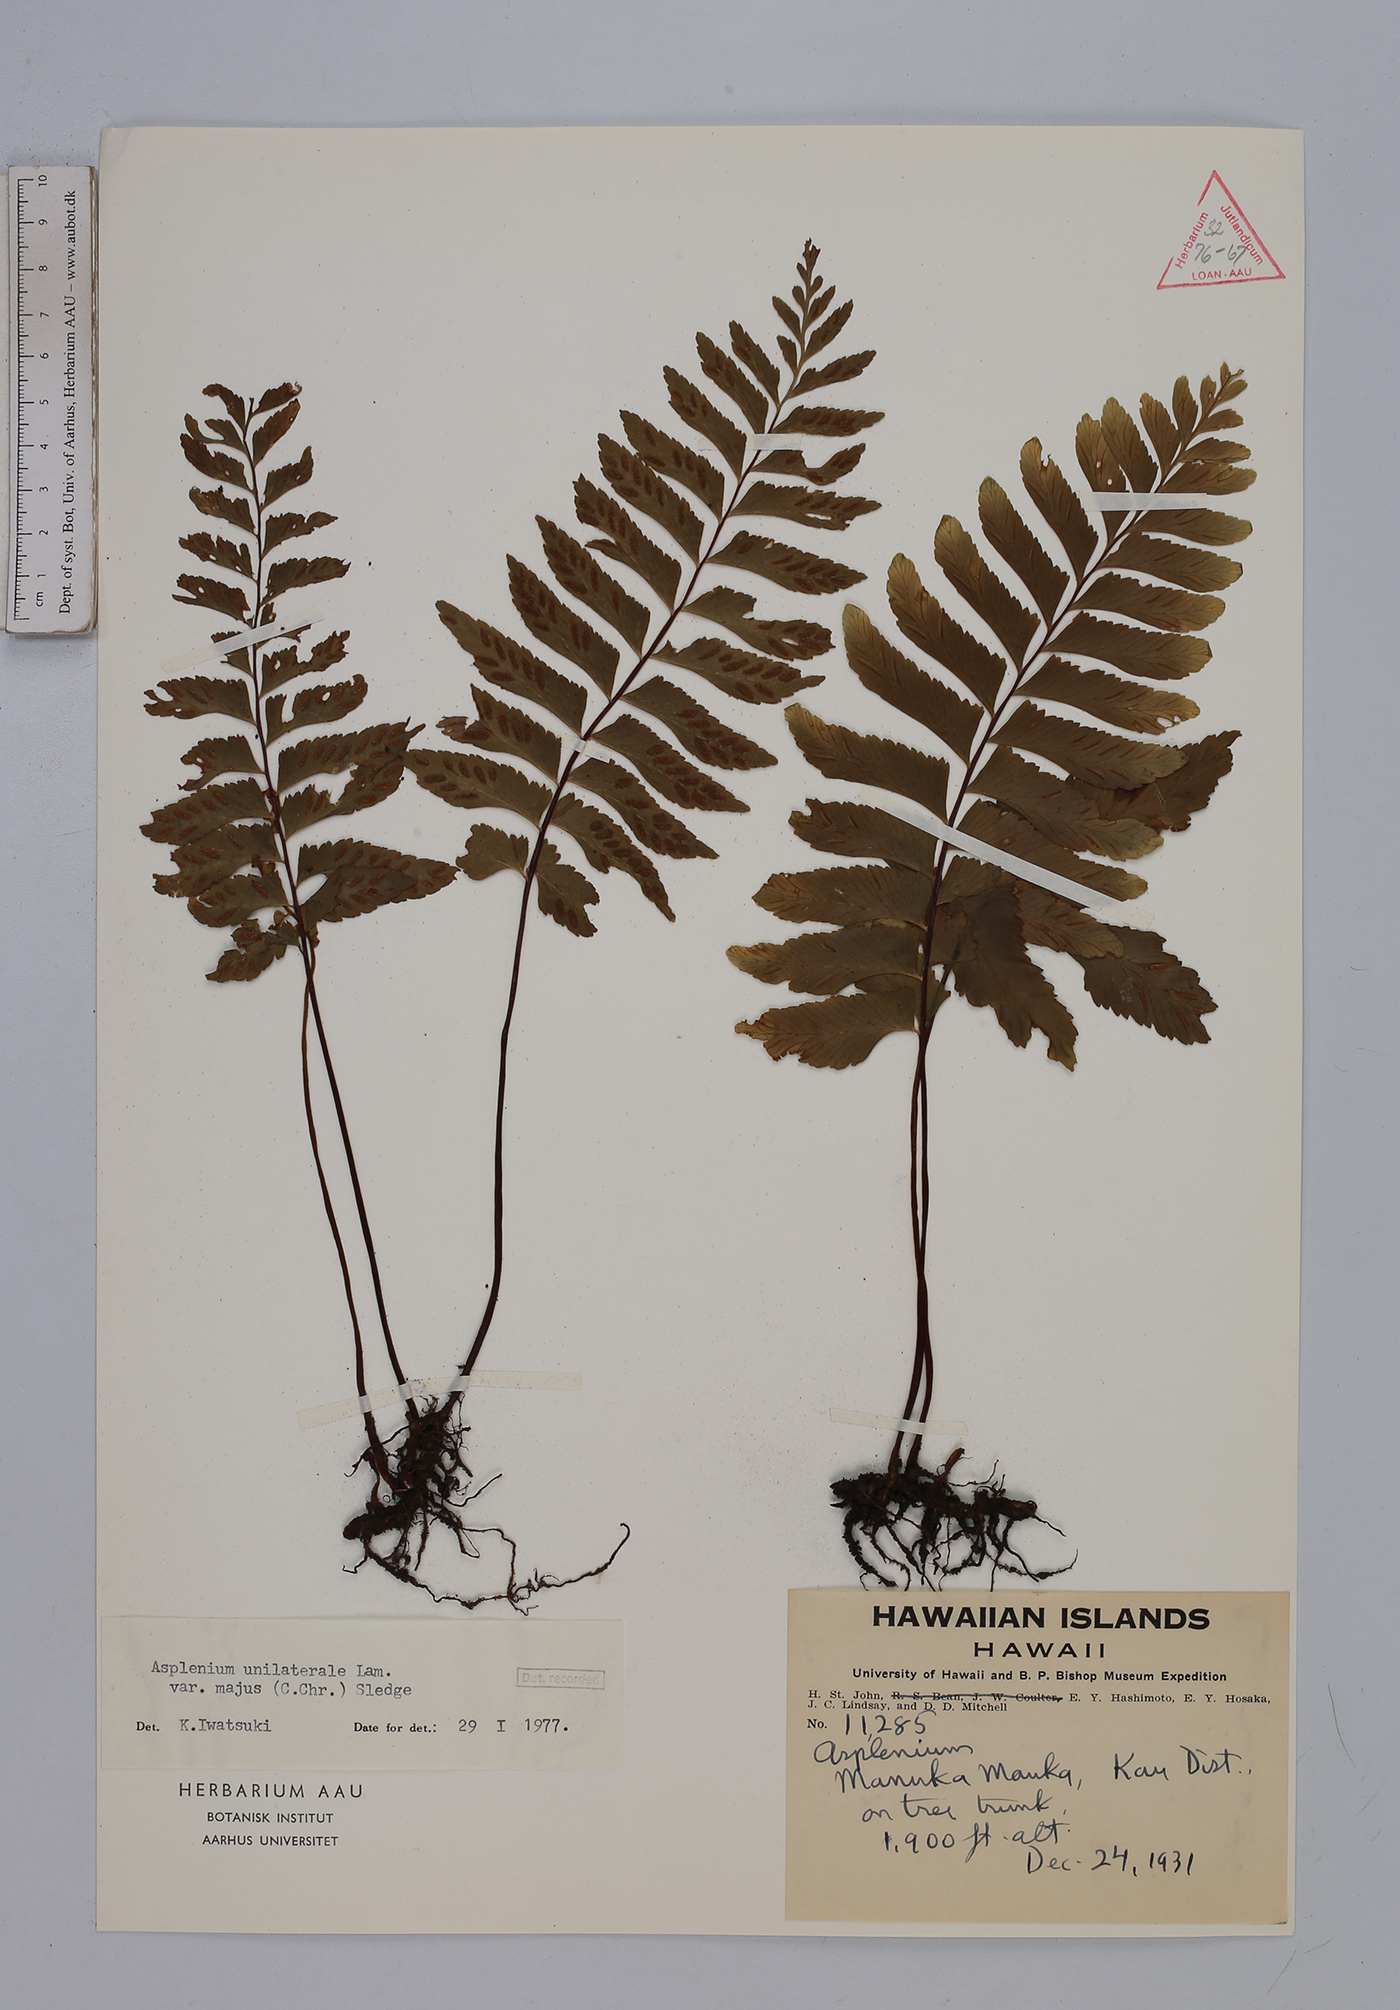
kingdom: Plantae
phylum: Tracheophyta
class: Polypodiopsida
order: Polypodiales
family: Aspleniaceae
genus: Hymenasplenium
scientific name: Hymenasplenium unilaterale
